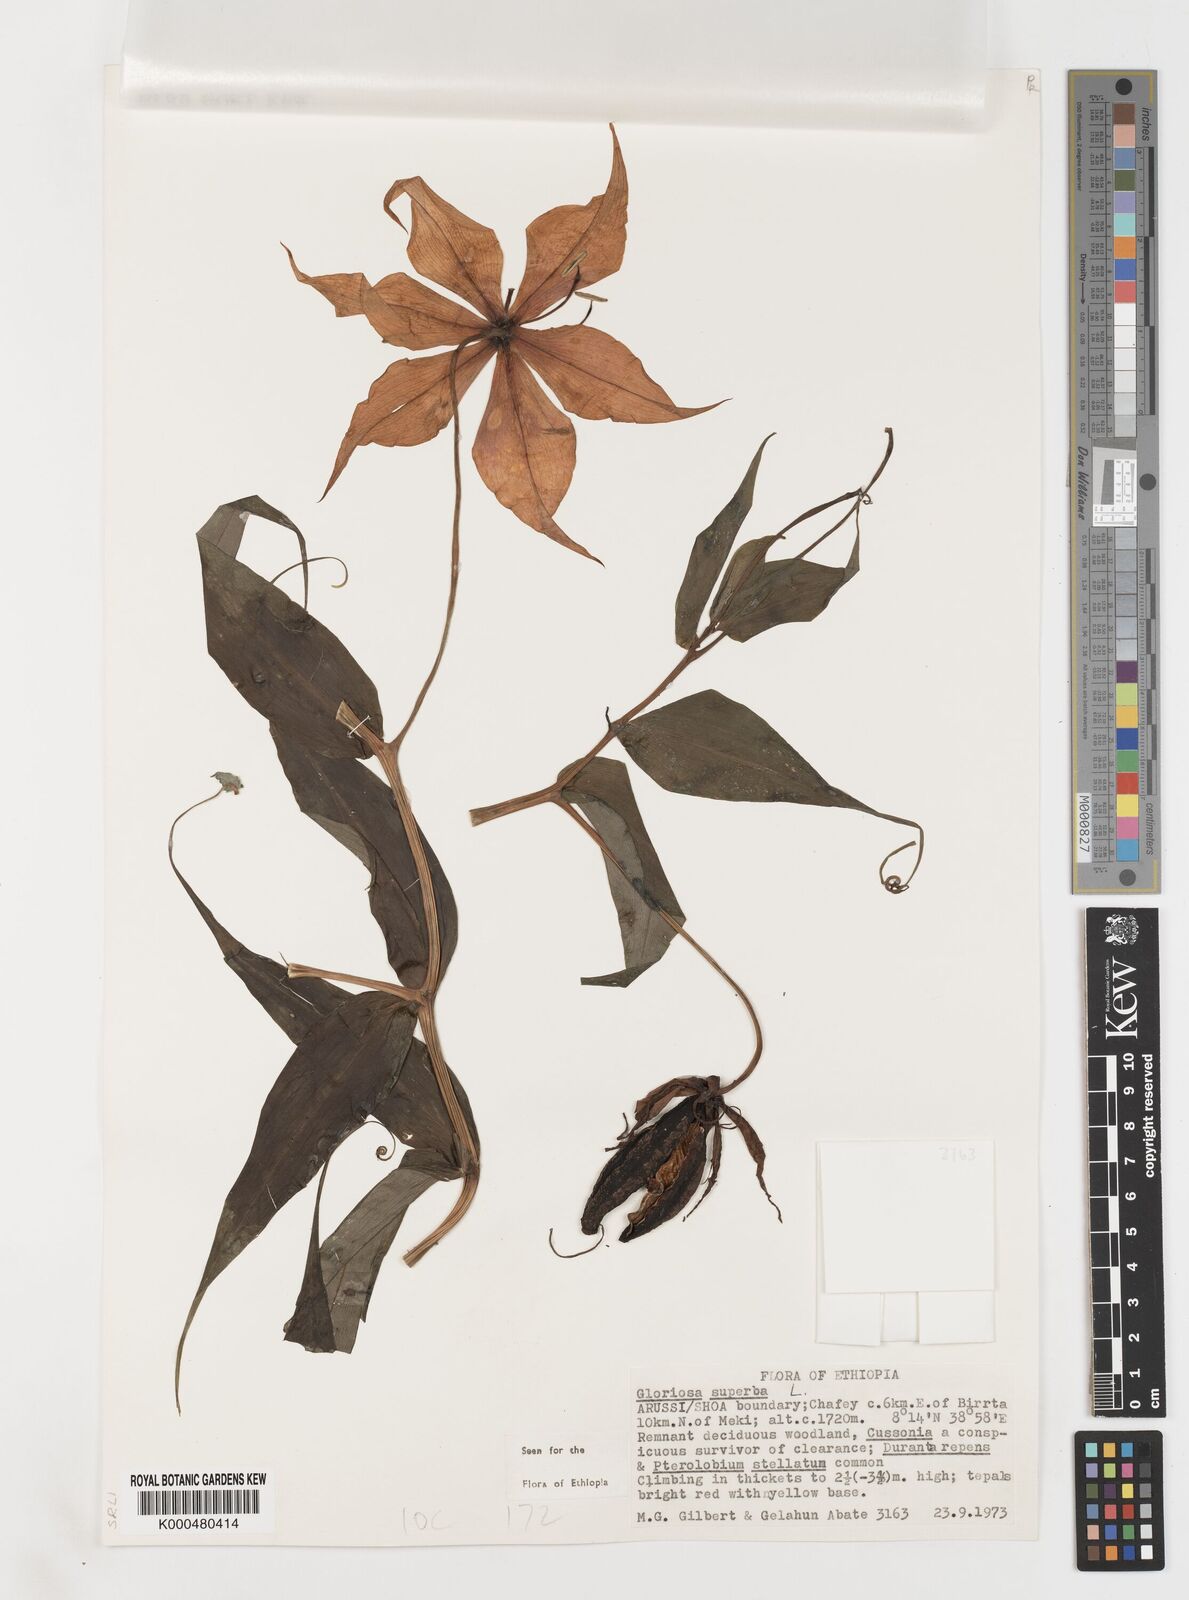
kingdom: Plantae
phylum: Tracheophyta
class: Liliopsida
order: Liliales
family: Colchicaceae
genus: Gloriosa
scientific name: Gloriosa superba
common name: Flame lily
